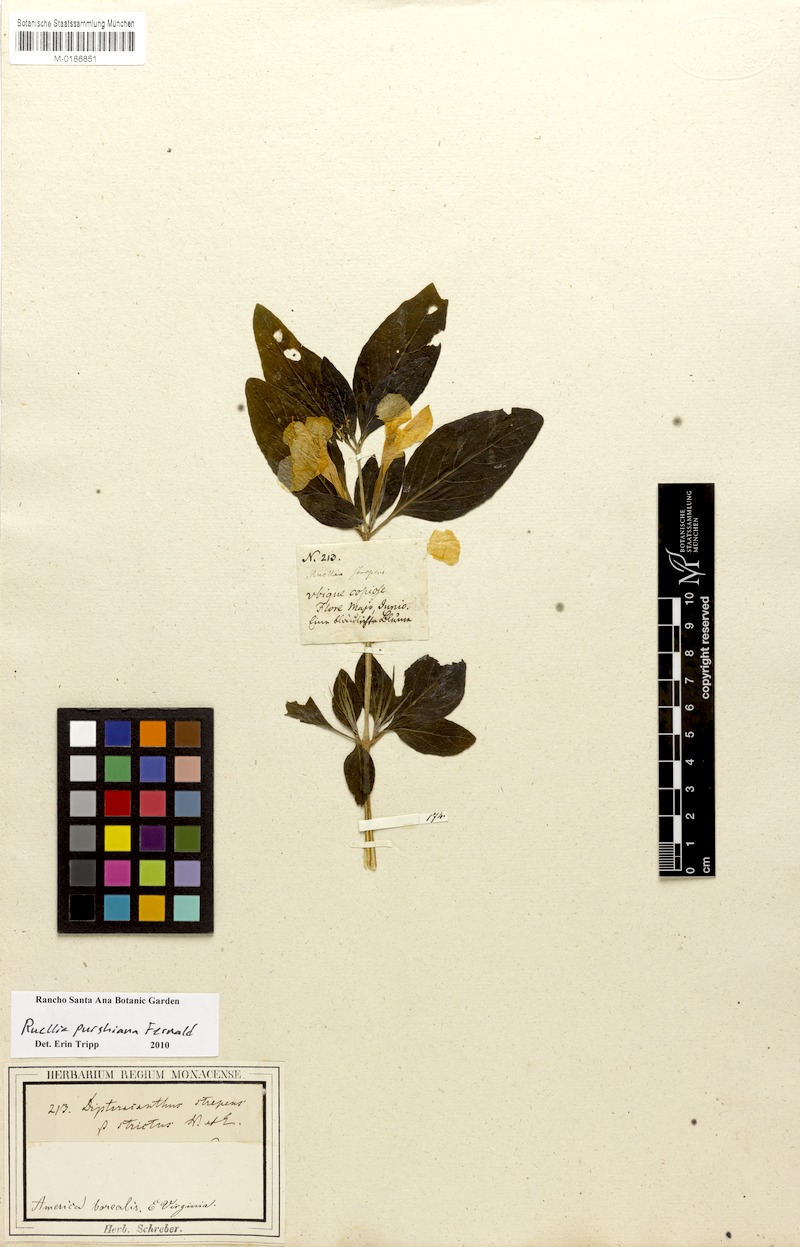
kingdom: Plantae
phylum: Tracheophyta
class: Magnoliopsida
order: Lamiales
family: Acanthaceae
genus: Ruellia
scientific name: Ruellia purshiana
